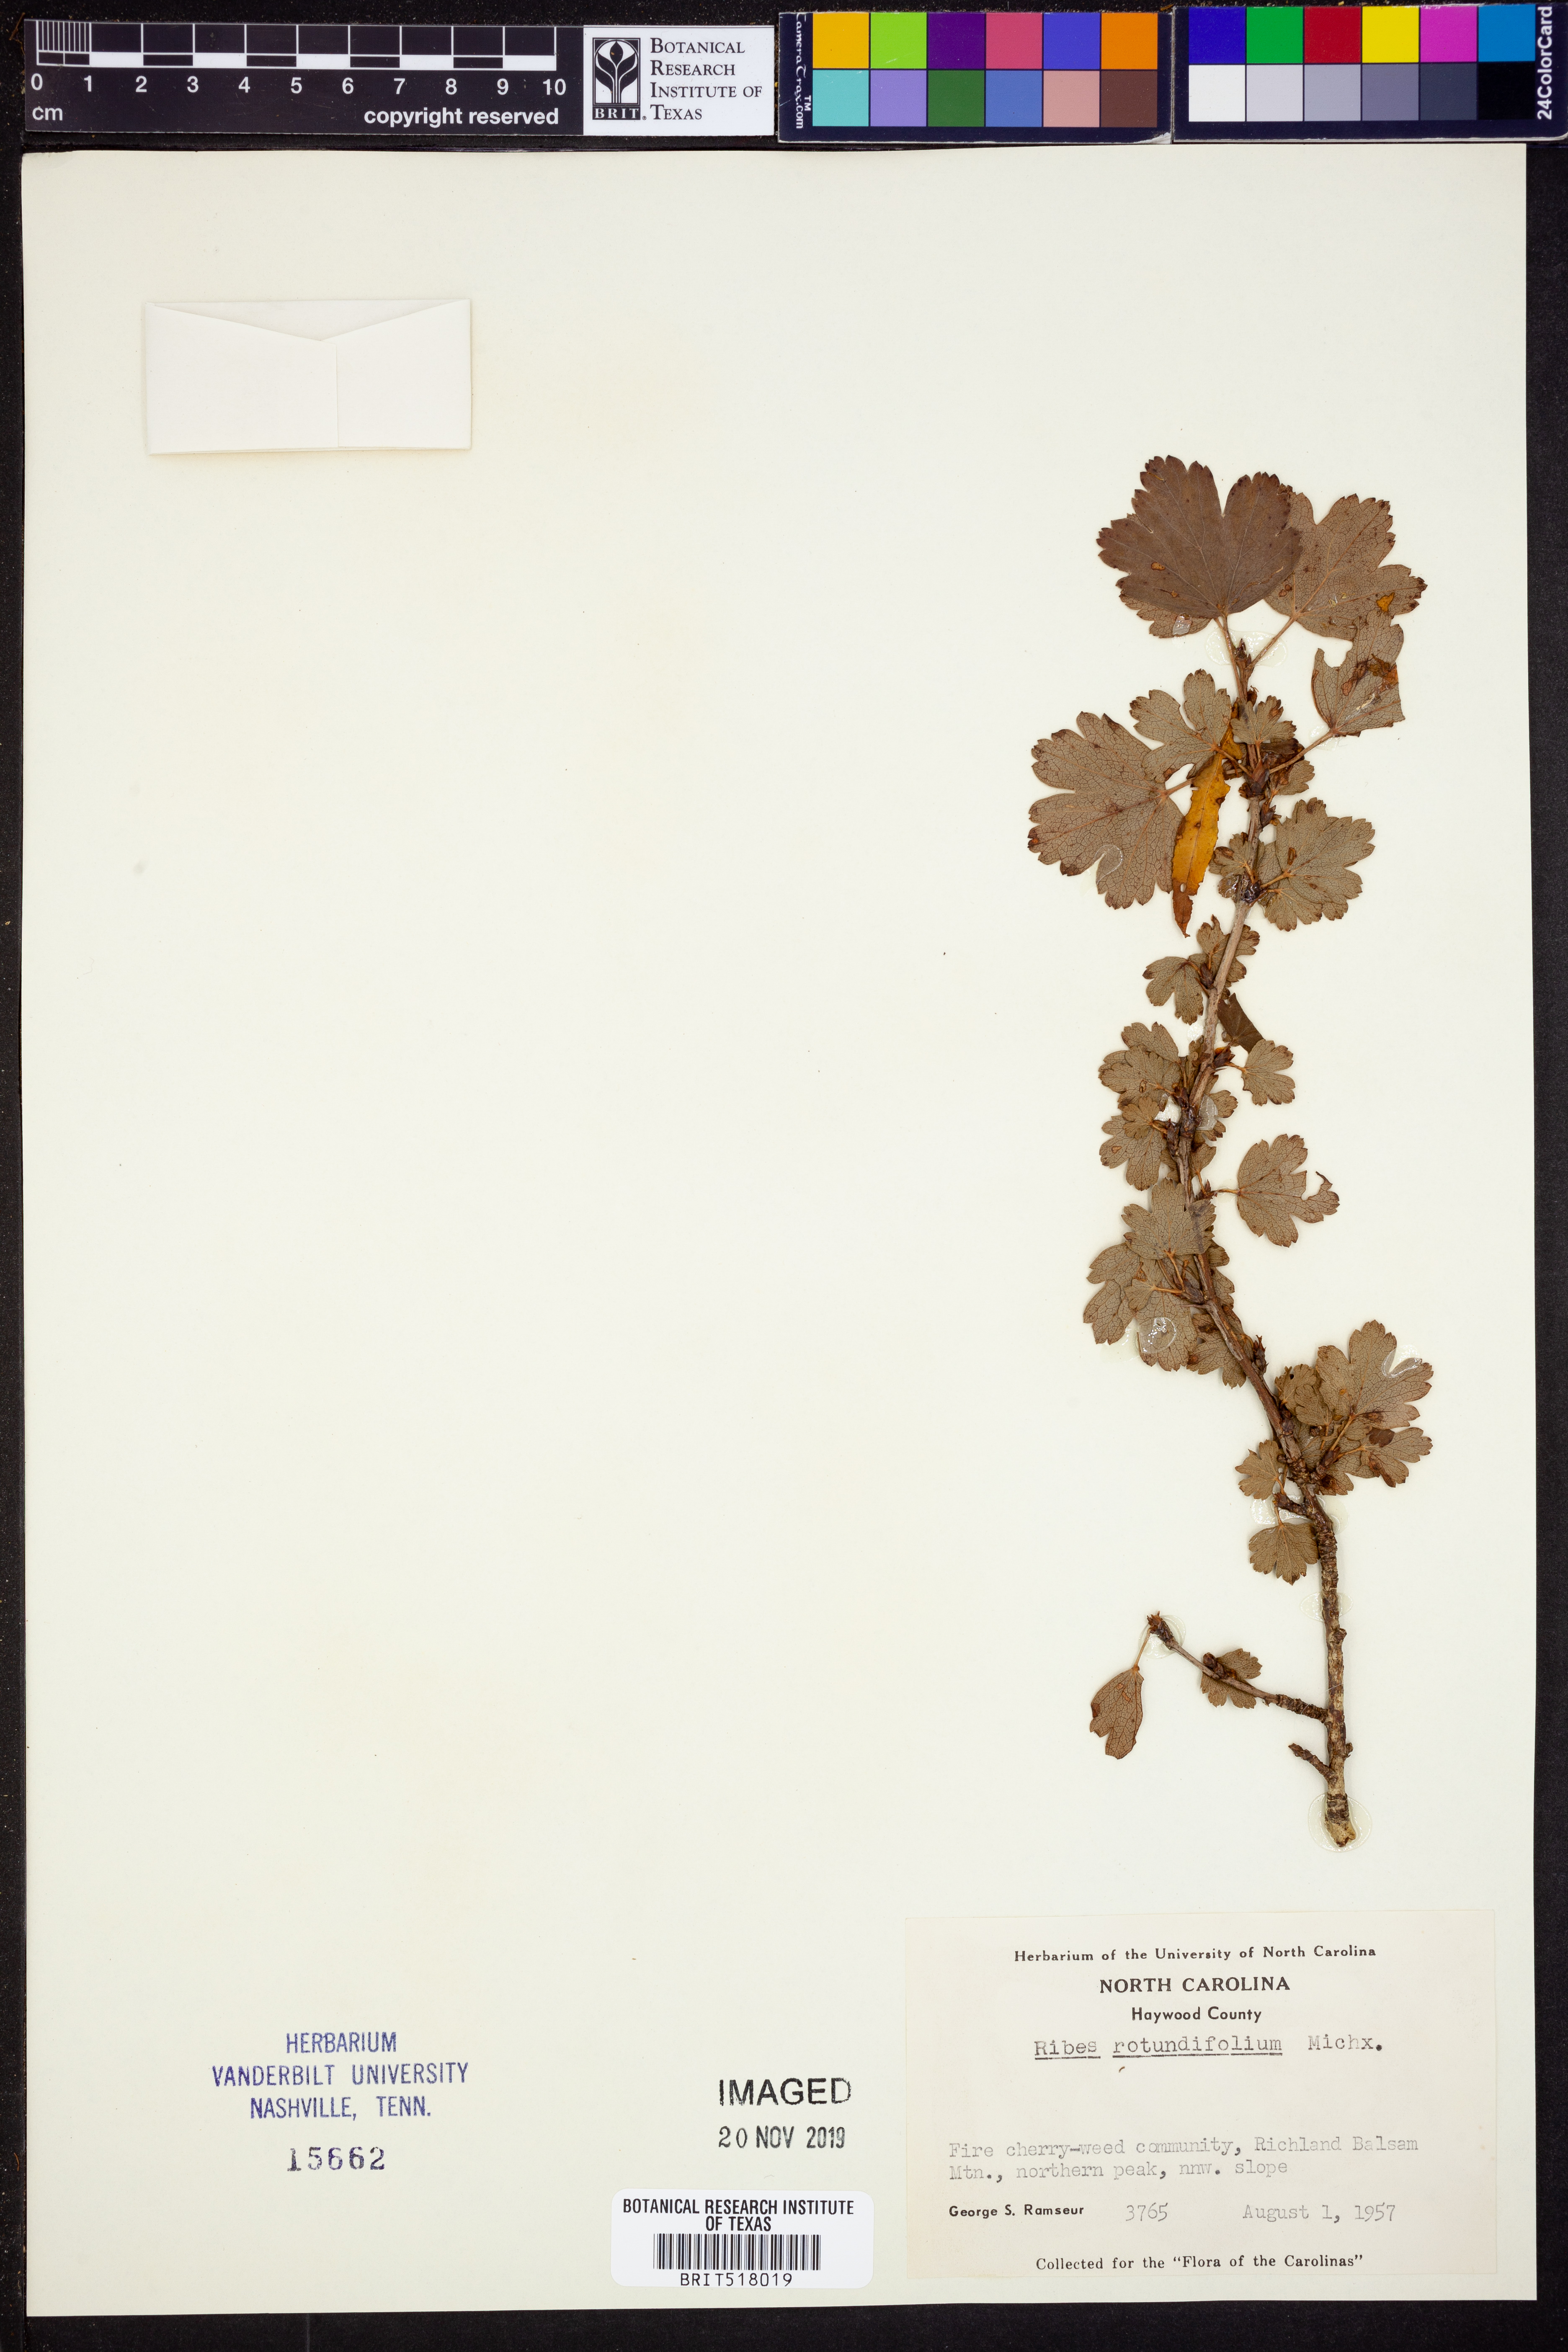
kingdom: Plantae
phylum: Tracheophyta
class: Magnoliopsida
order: Saxifragales
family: Grossulariaceae
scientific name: Grossulariaceae
